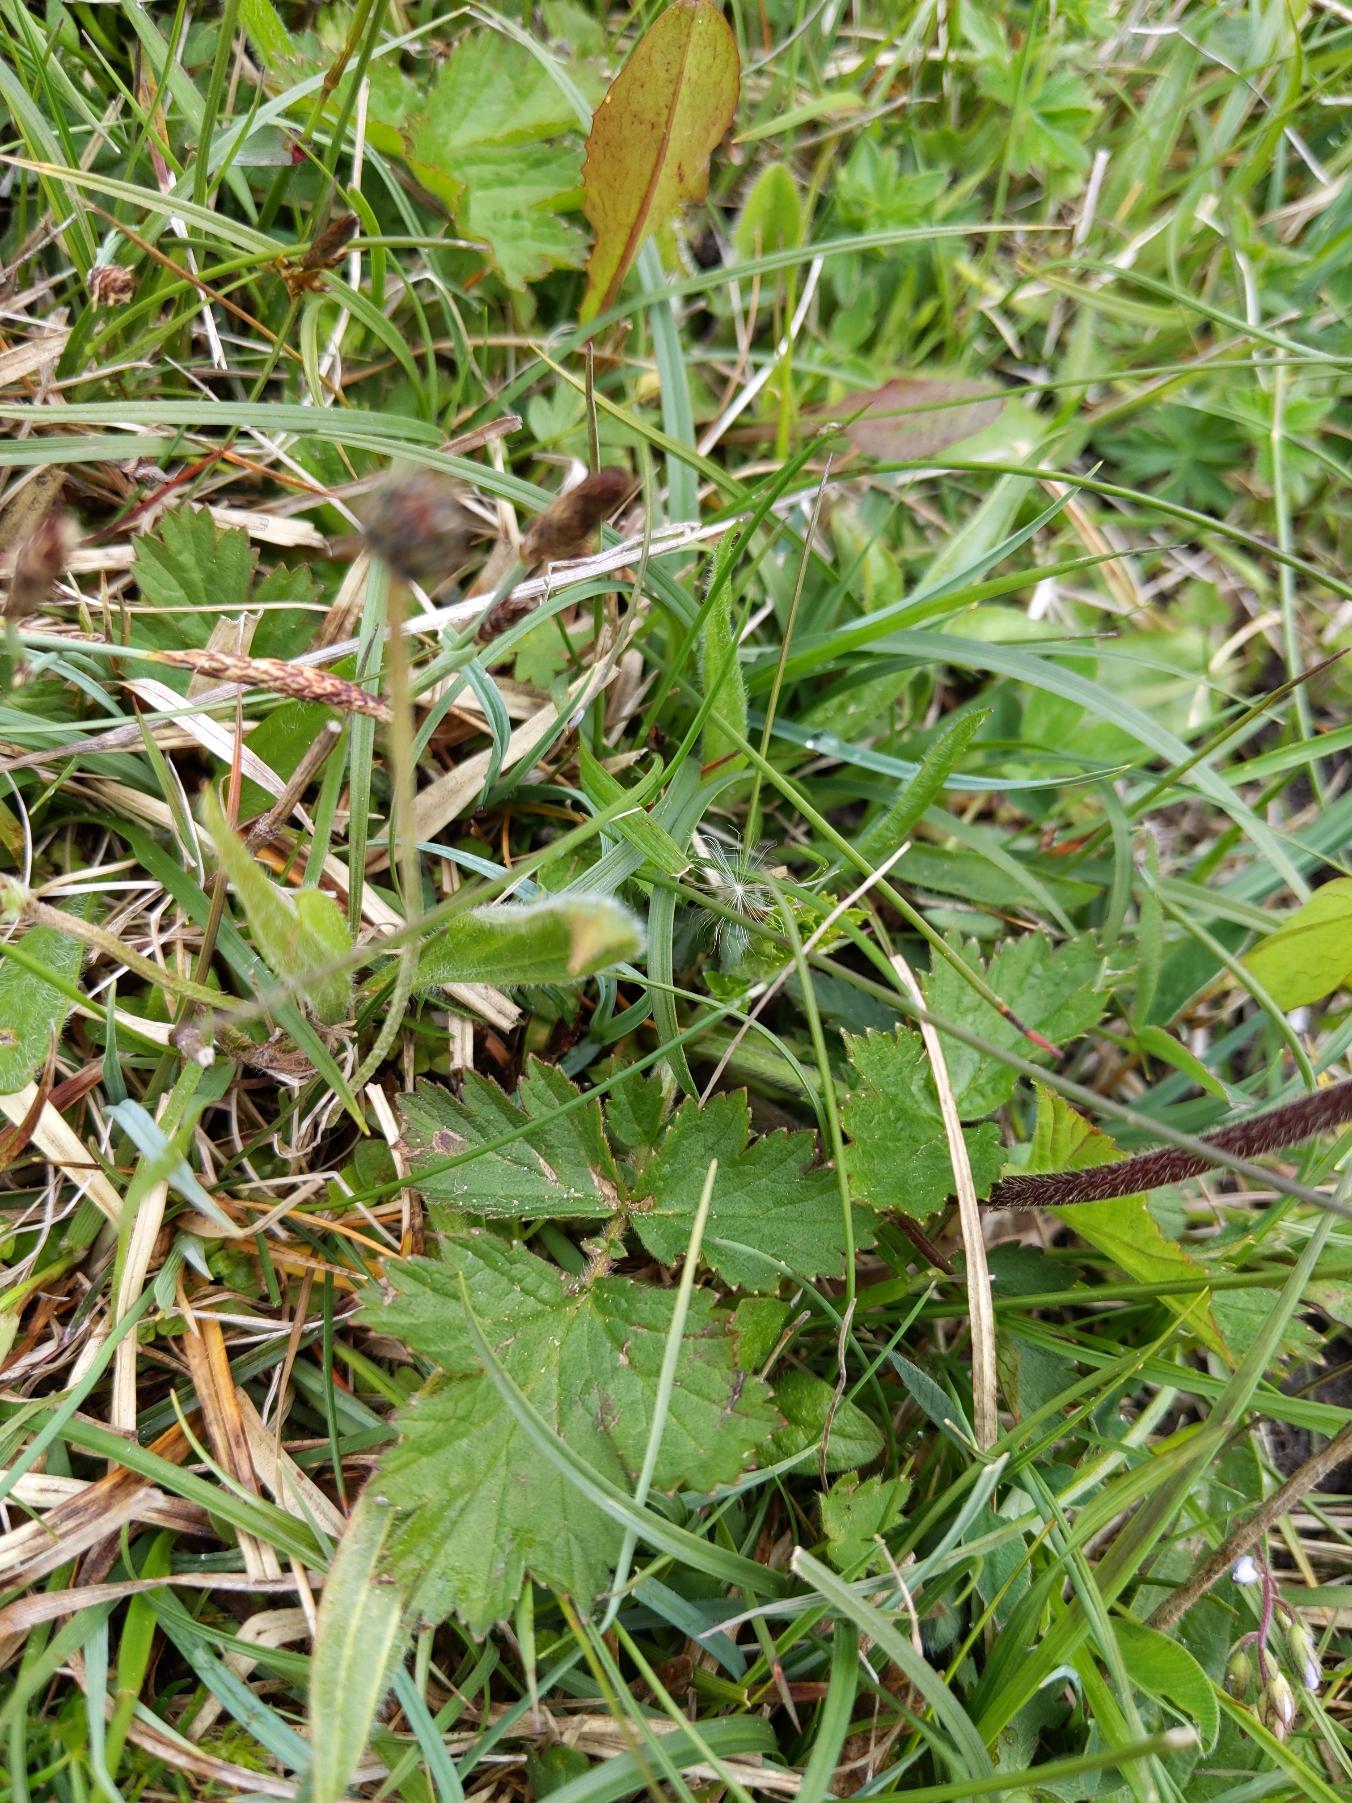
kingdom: Plantae
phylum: Tracheophyta
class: Magnoliopsida
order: Rosales
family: Rosaceae
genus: Geum
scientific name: Geum rivale
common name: Eng-nellikerod
